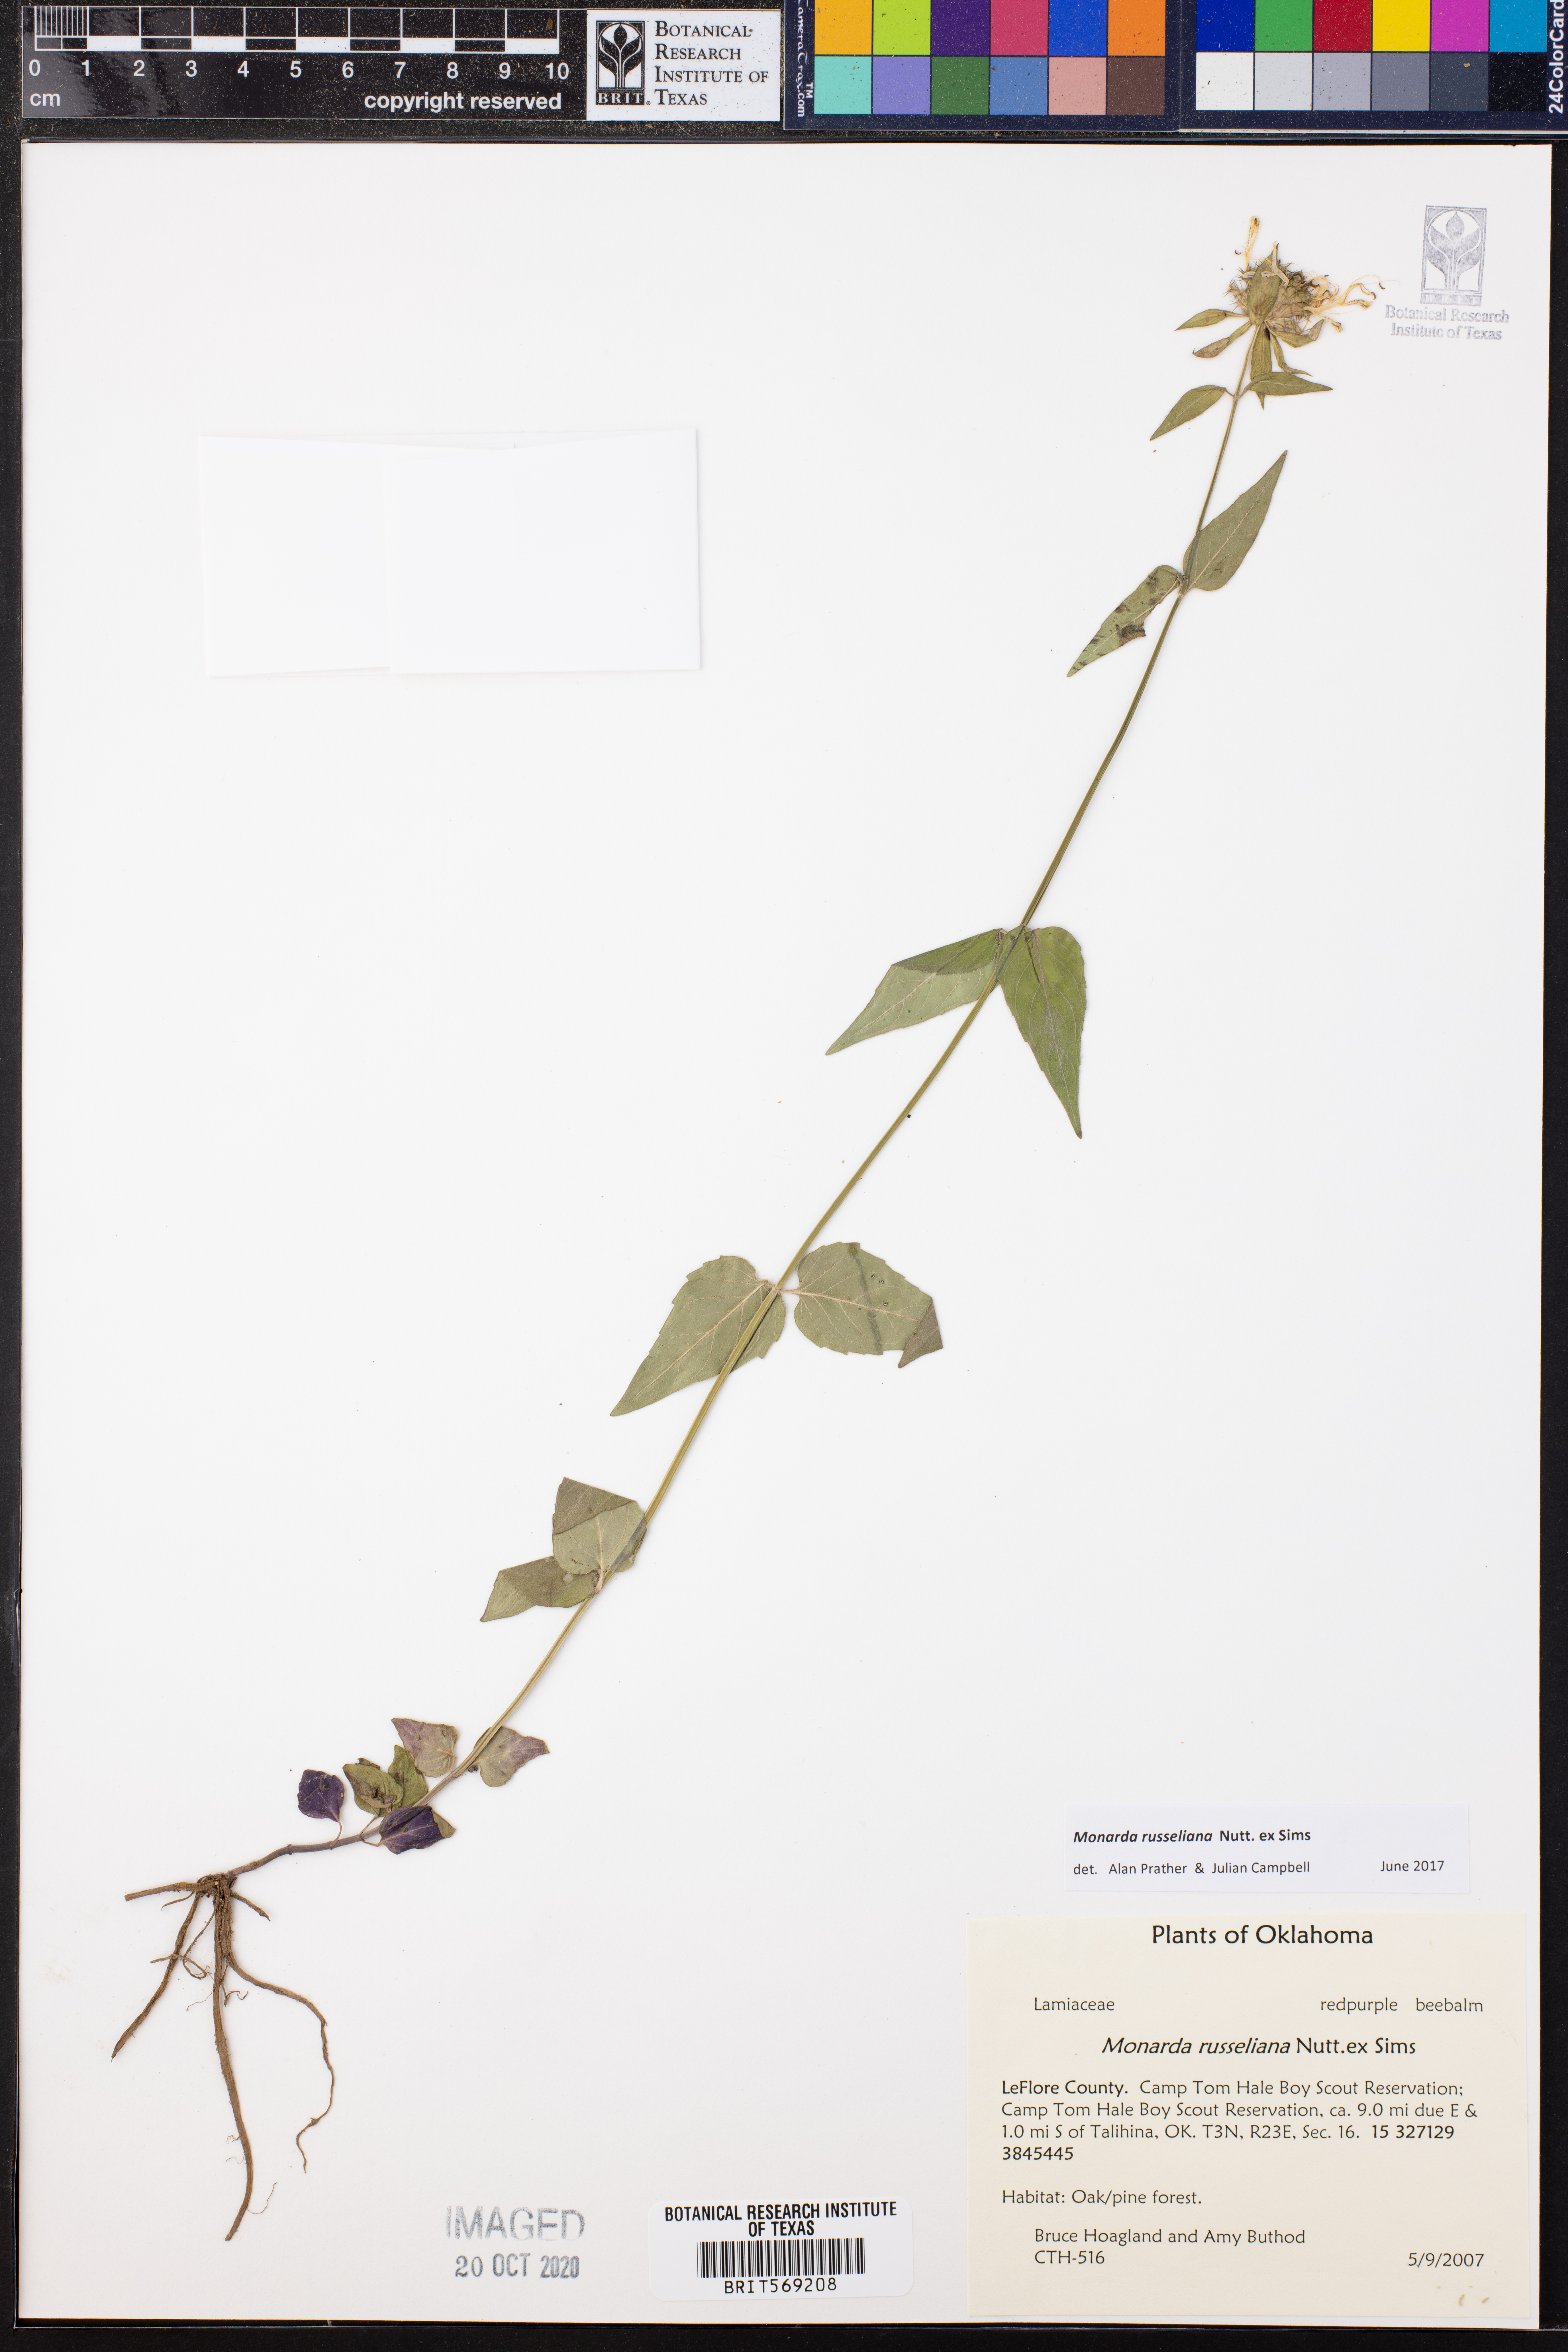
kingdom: Plantae
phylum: Tracheophyta
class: Magnoliopsida
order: Lamiales
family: Lamiaceae
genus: Monarda
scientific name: Monarda russeliana
